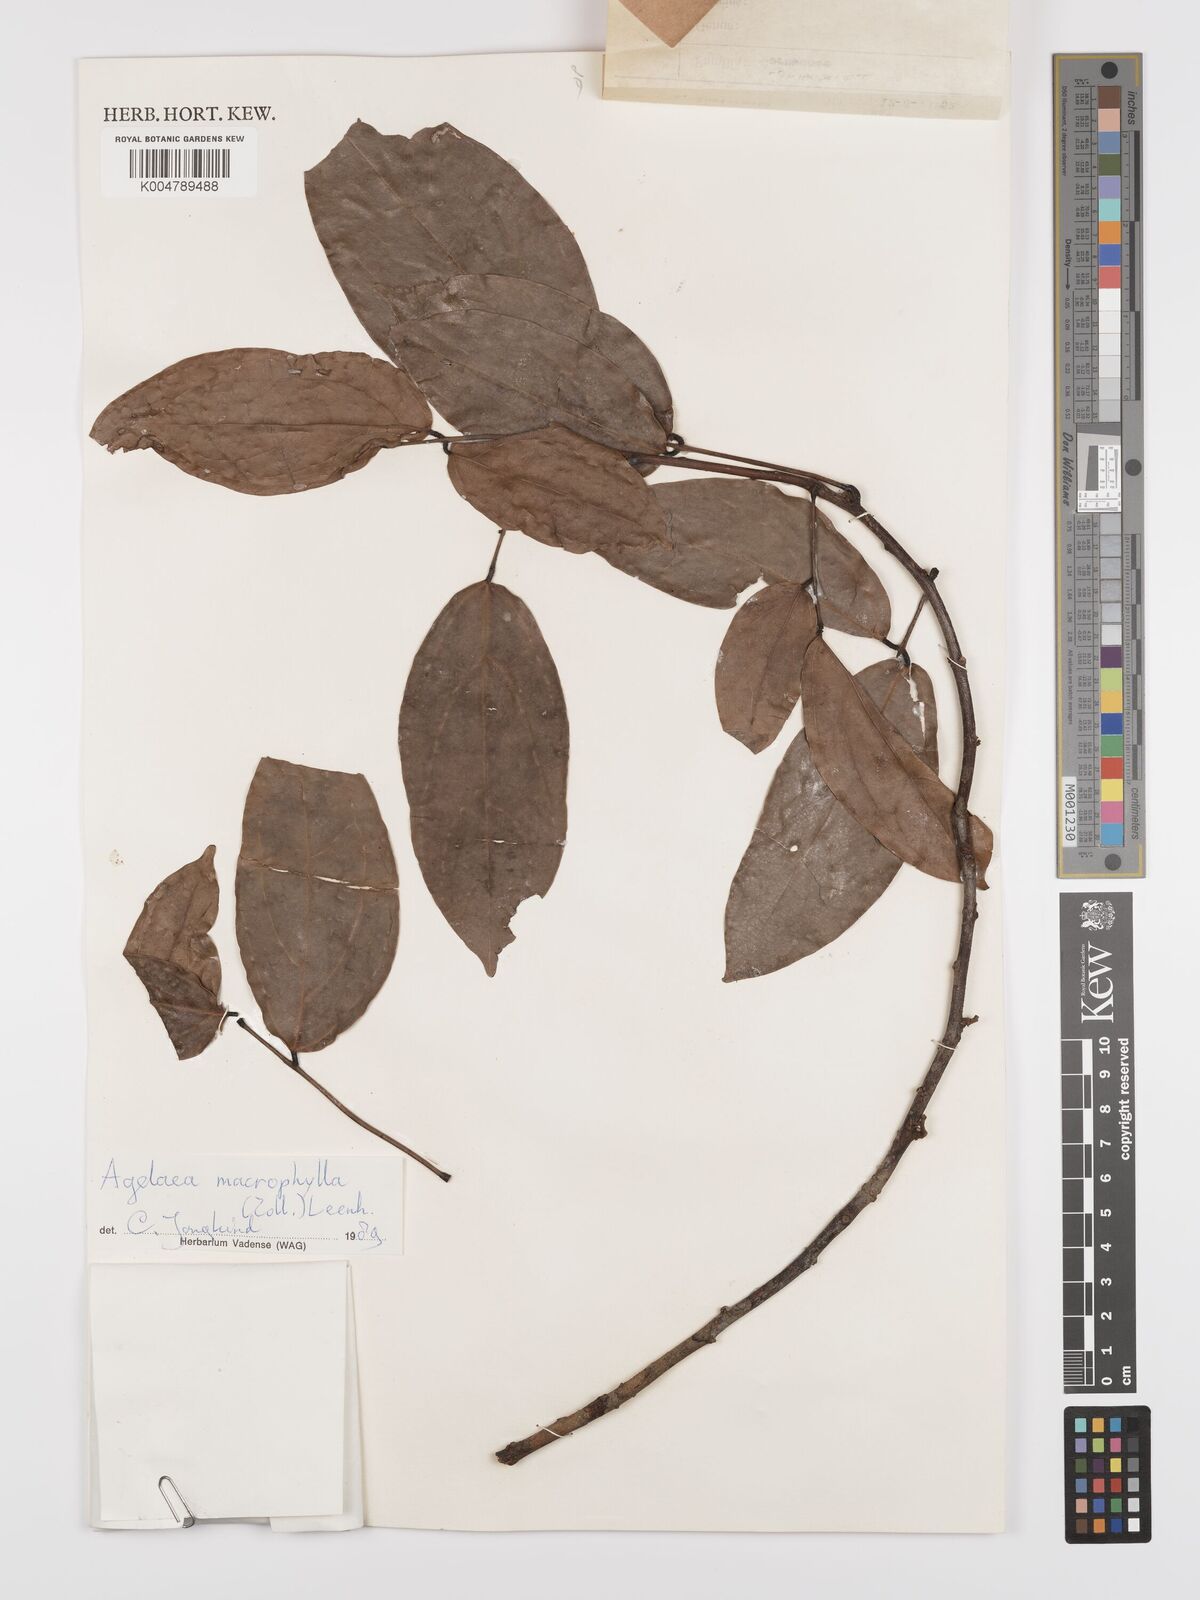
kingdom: Plantae
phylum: Tracheophyta
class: Magnoliopsida
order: Oxalidales
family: Connaraceae
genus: Agelaea
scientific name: Agelaea macrophylla
